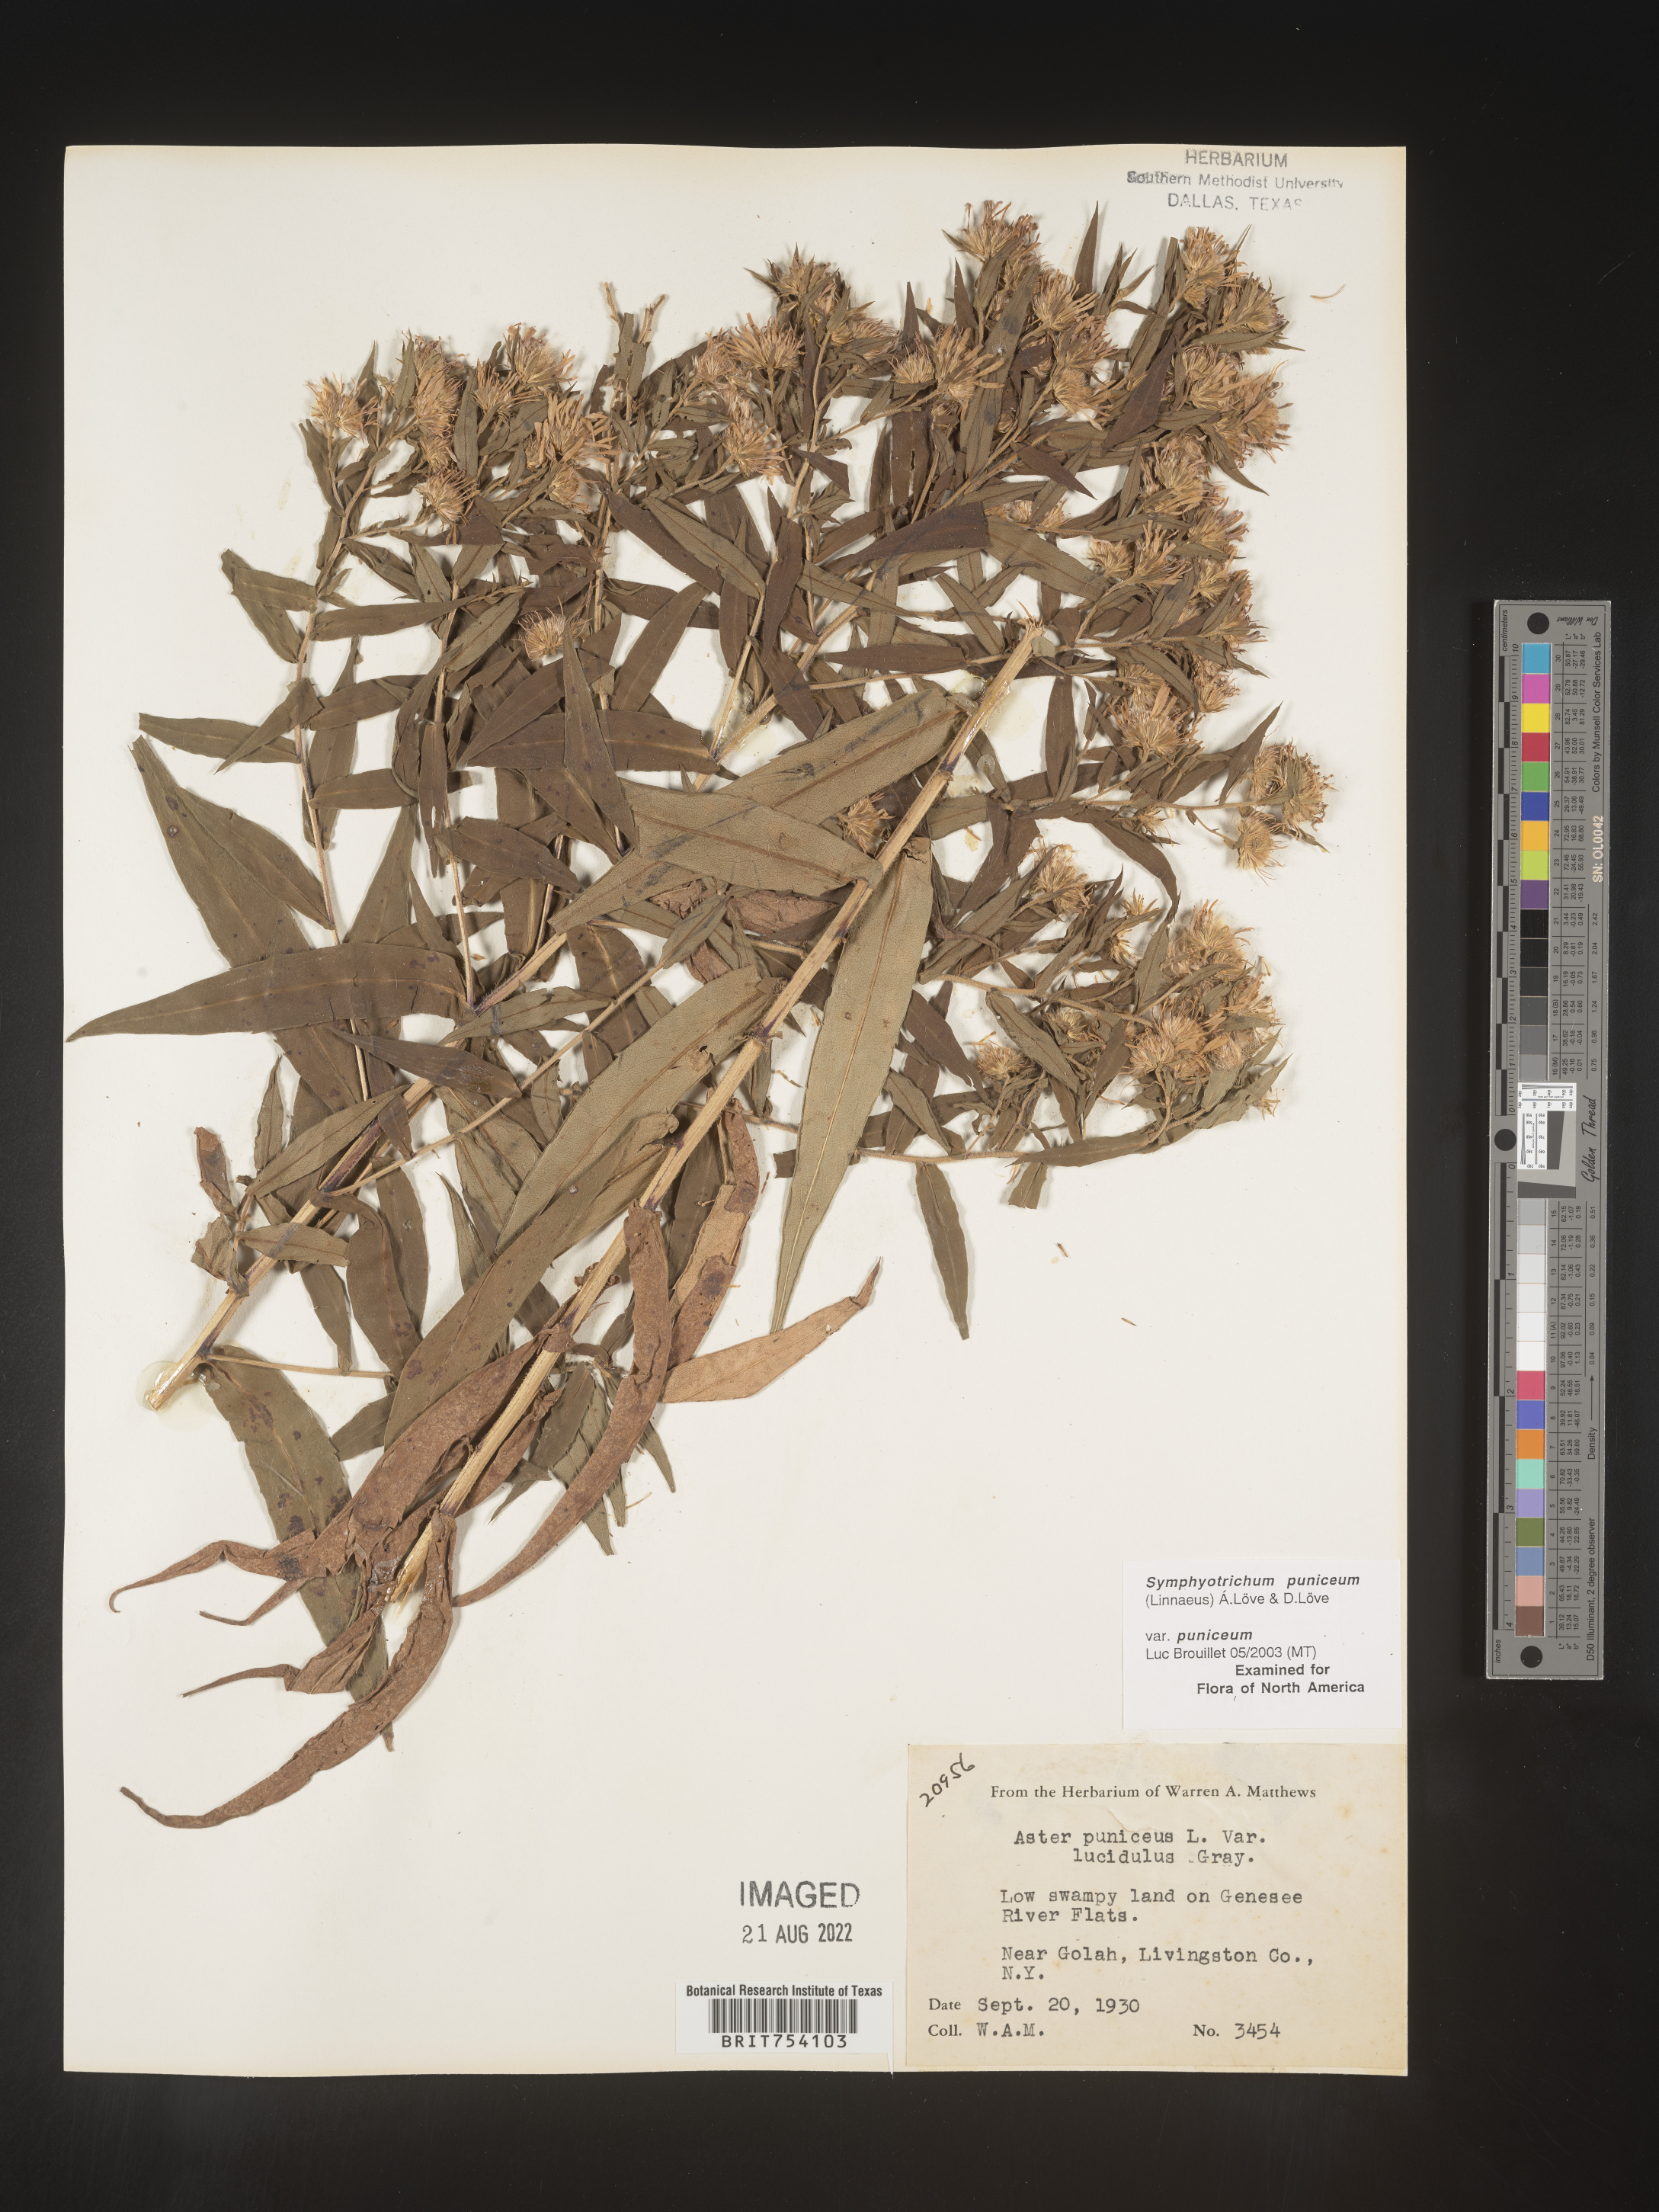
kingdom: Plantae
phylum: Tracheophyta
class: Magnoliopsida
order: Asterales
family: Asteraceae
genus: Symphyotrichum
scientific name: Symphyotrichum puniceum
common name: Bog aster
